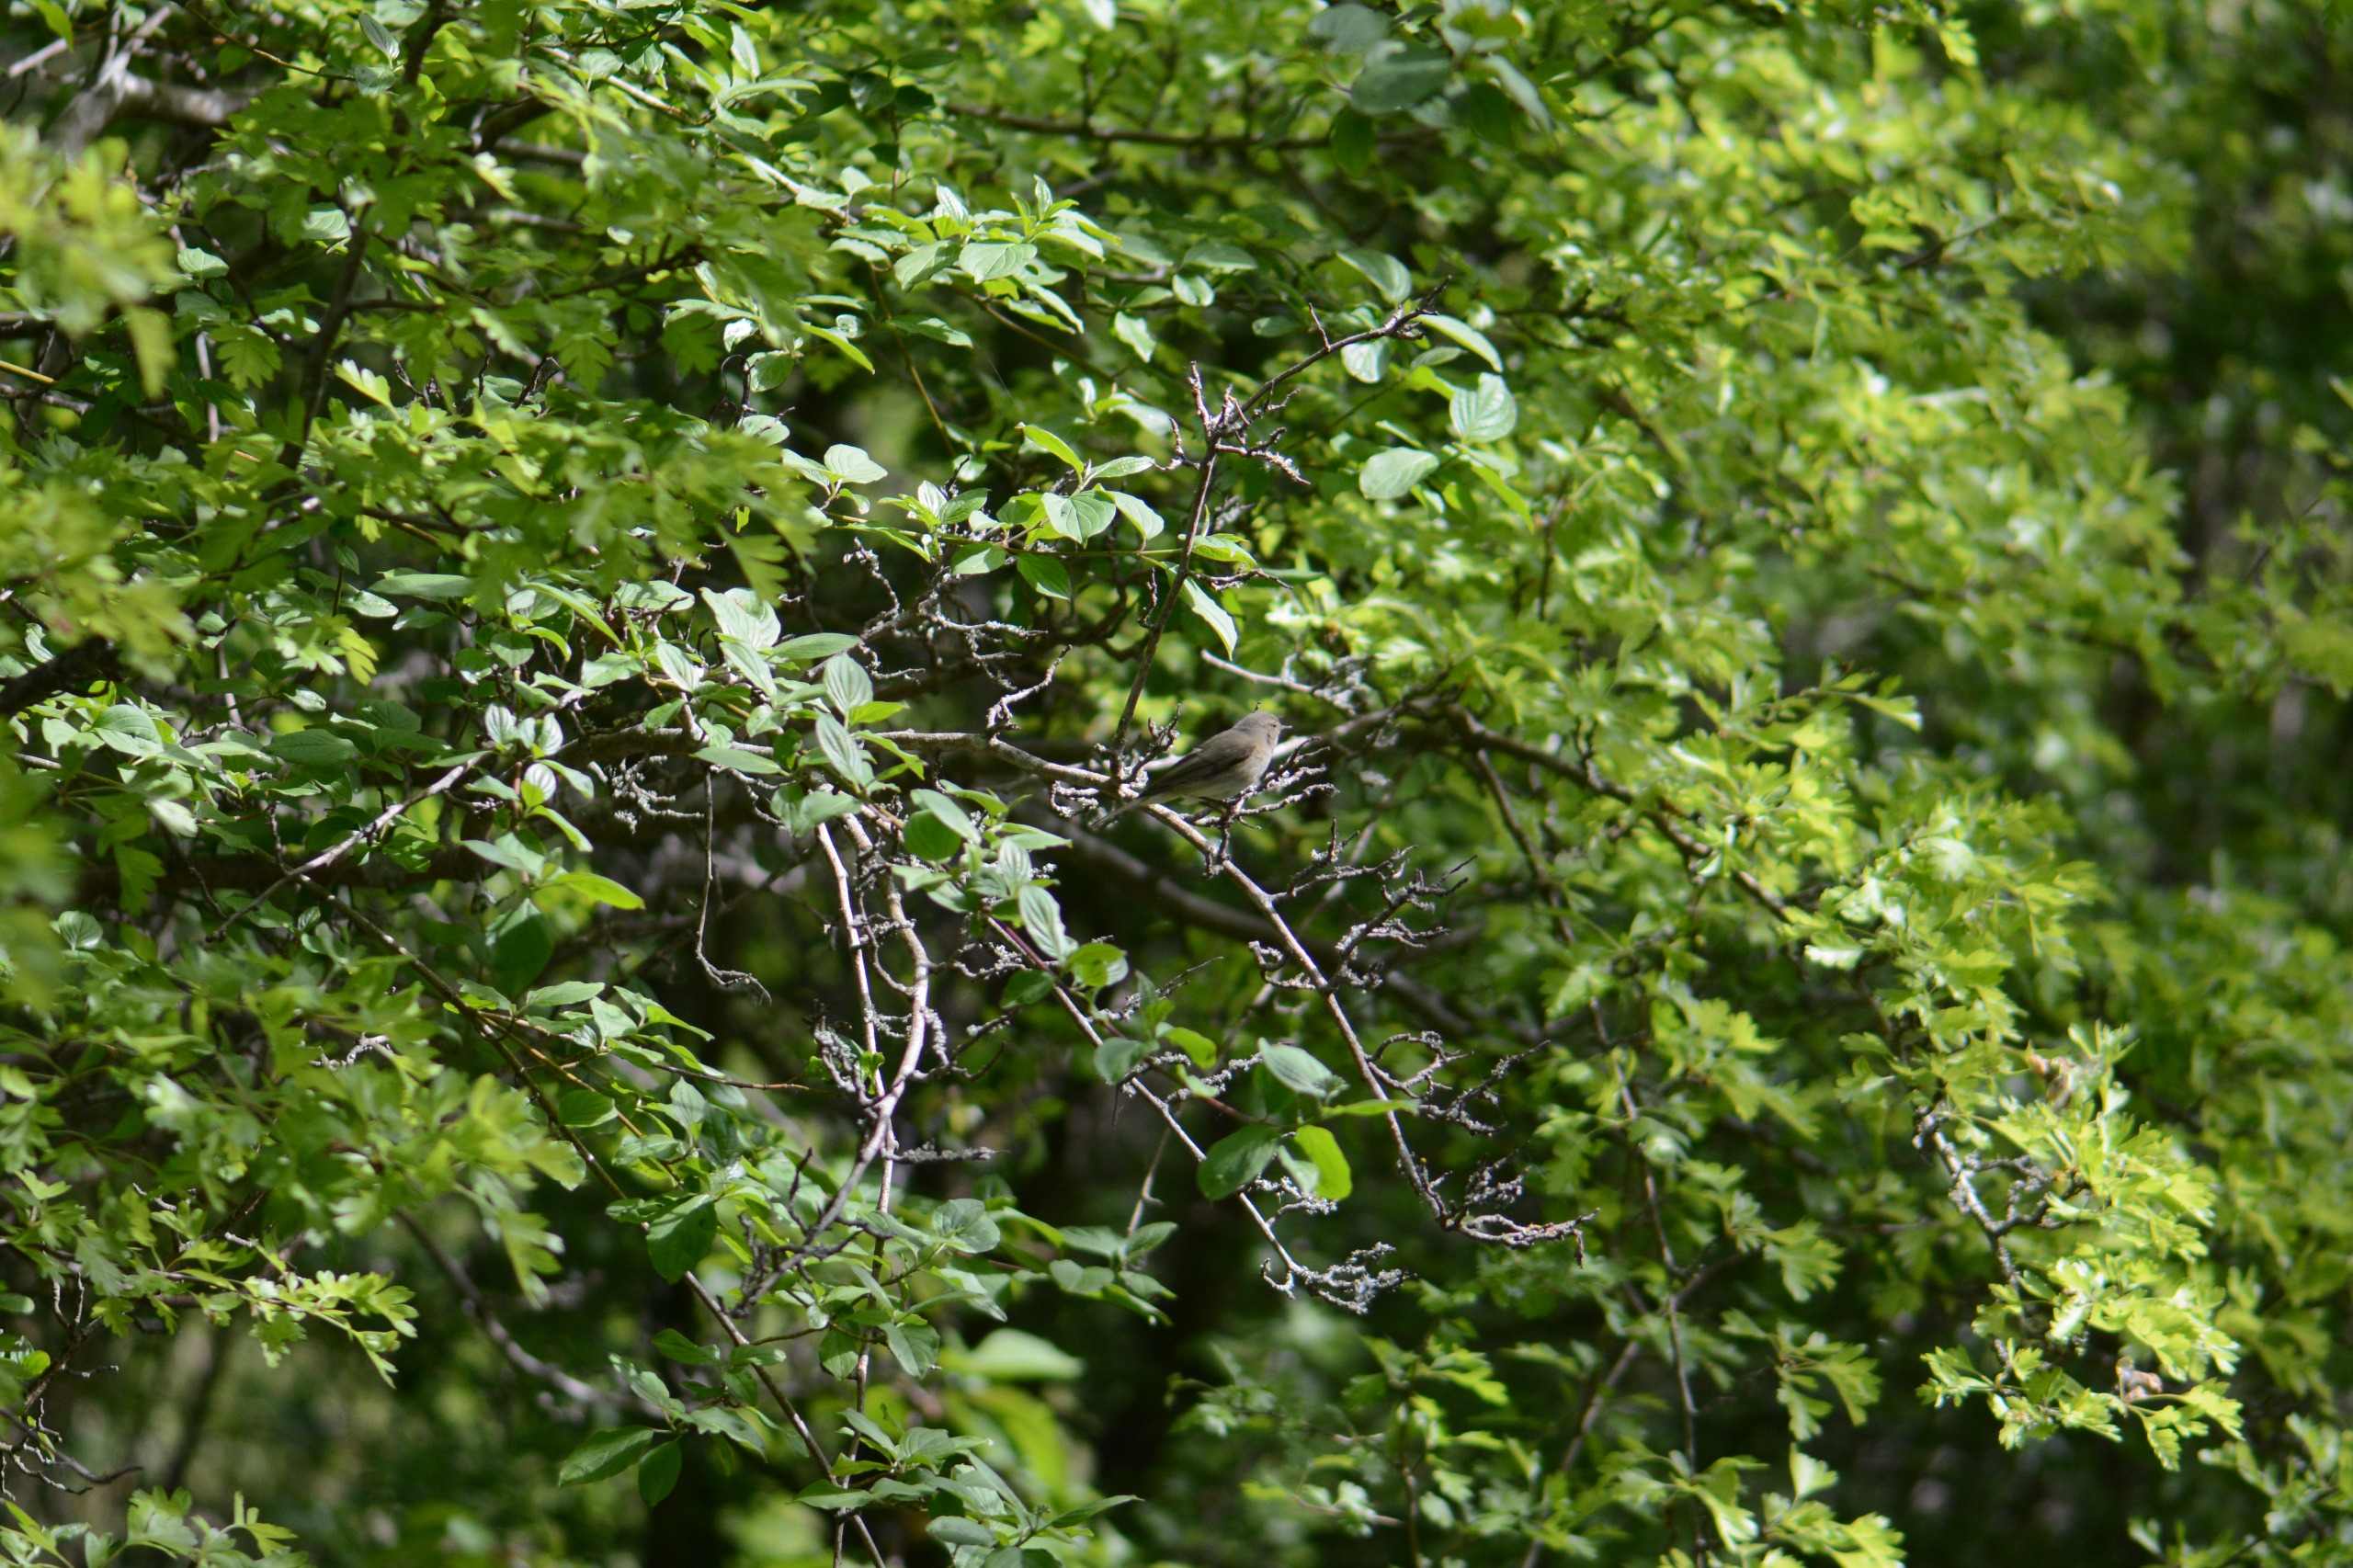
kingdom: Animalia
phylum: Chordata
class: Aves
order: Passeriformes
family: Phylloscopidae
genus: Phylloscopus
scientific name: Phylloscopus trochilus
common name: Løvsanger
